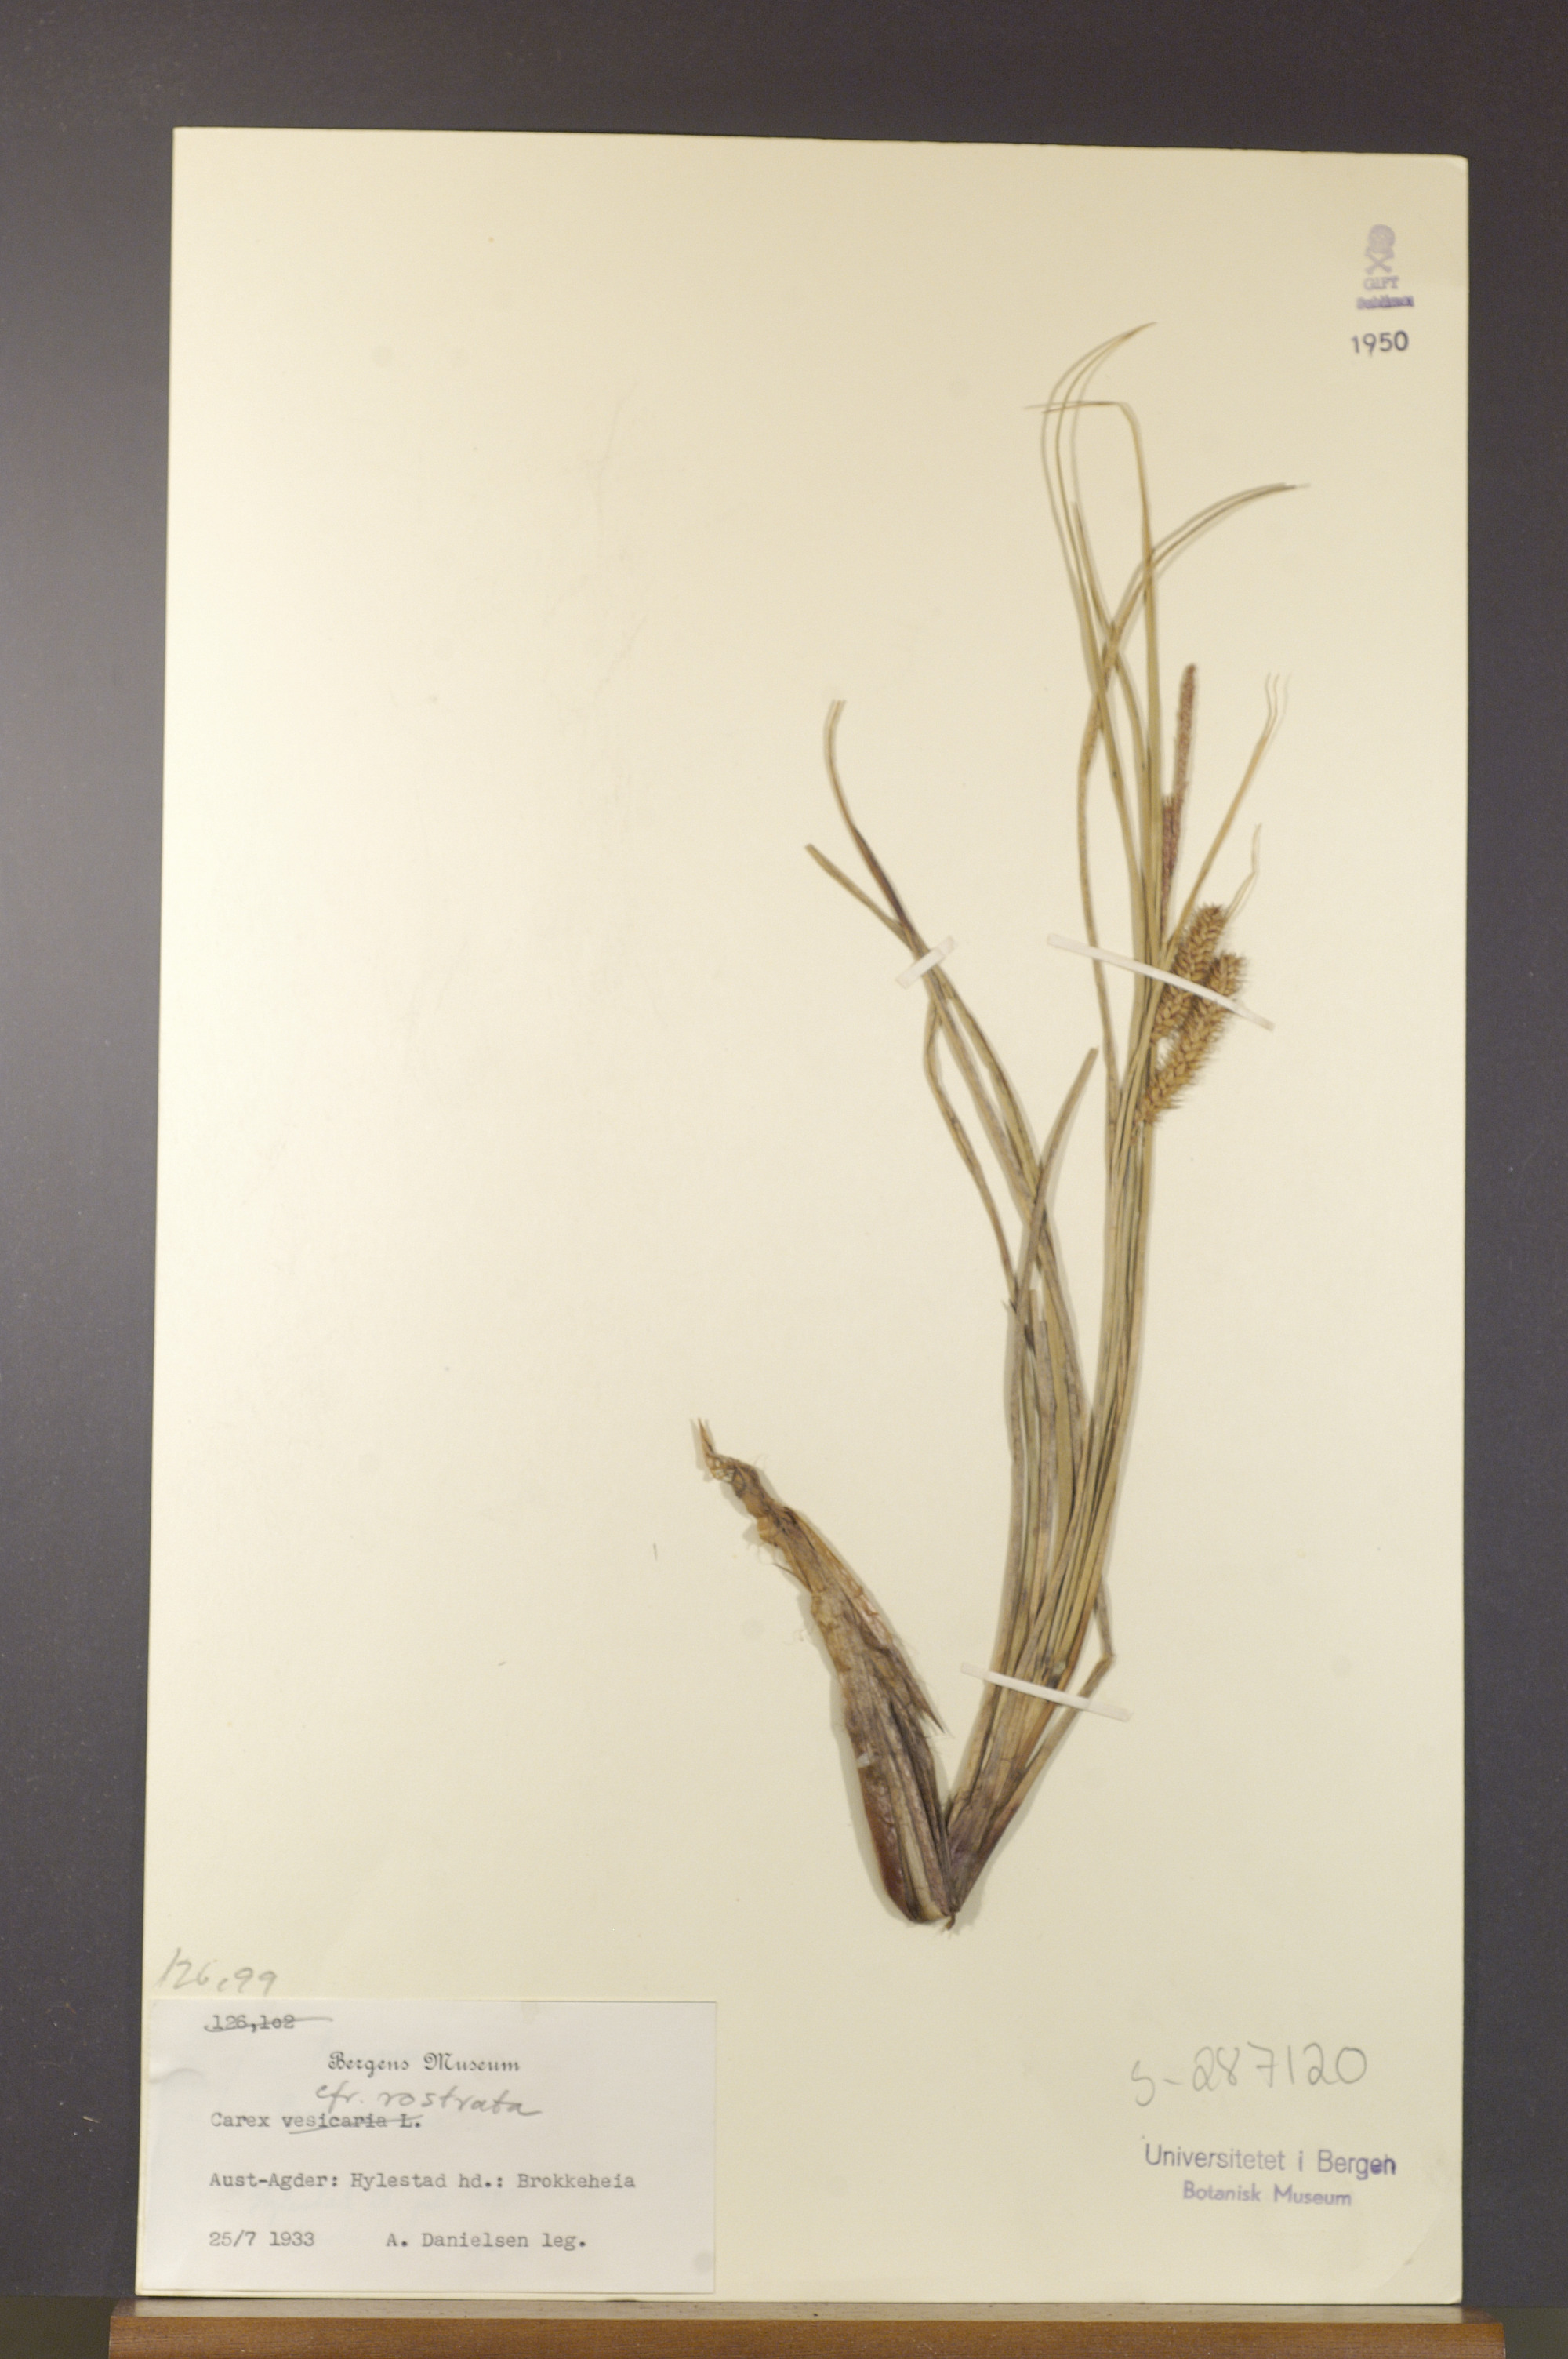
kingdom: Plantae
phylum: Tracheophyta
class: Liliopsida
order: Poales
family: Cyperaceae
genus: Carex
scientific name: Carex rostrata
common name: Bottle sedge
